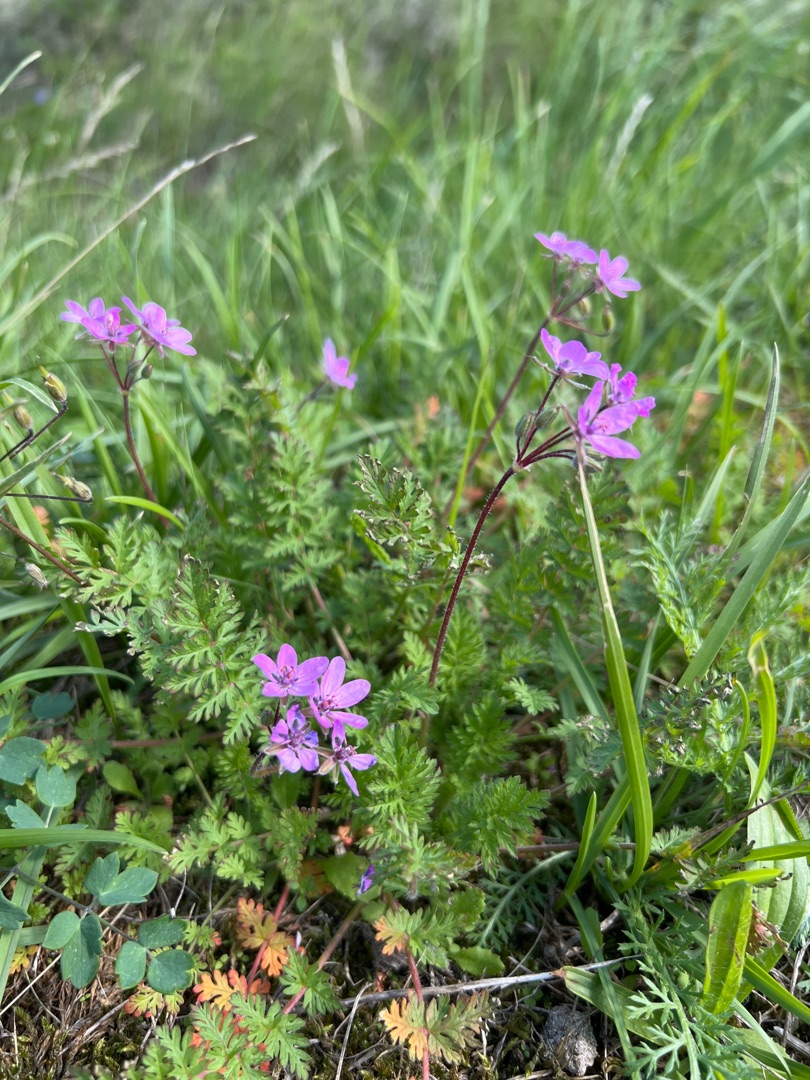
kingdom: Plantae
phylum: Tracheophyta
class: Magnoliopsida
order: Geraniales
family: Geraniaceae
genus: Erodium
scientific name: Erodium cicutarium
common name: Hejrenæb
